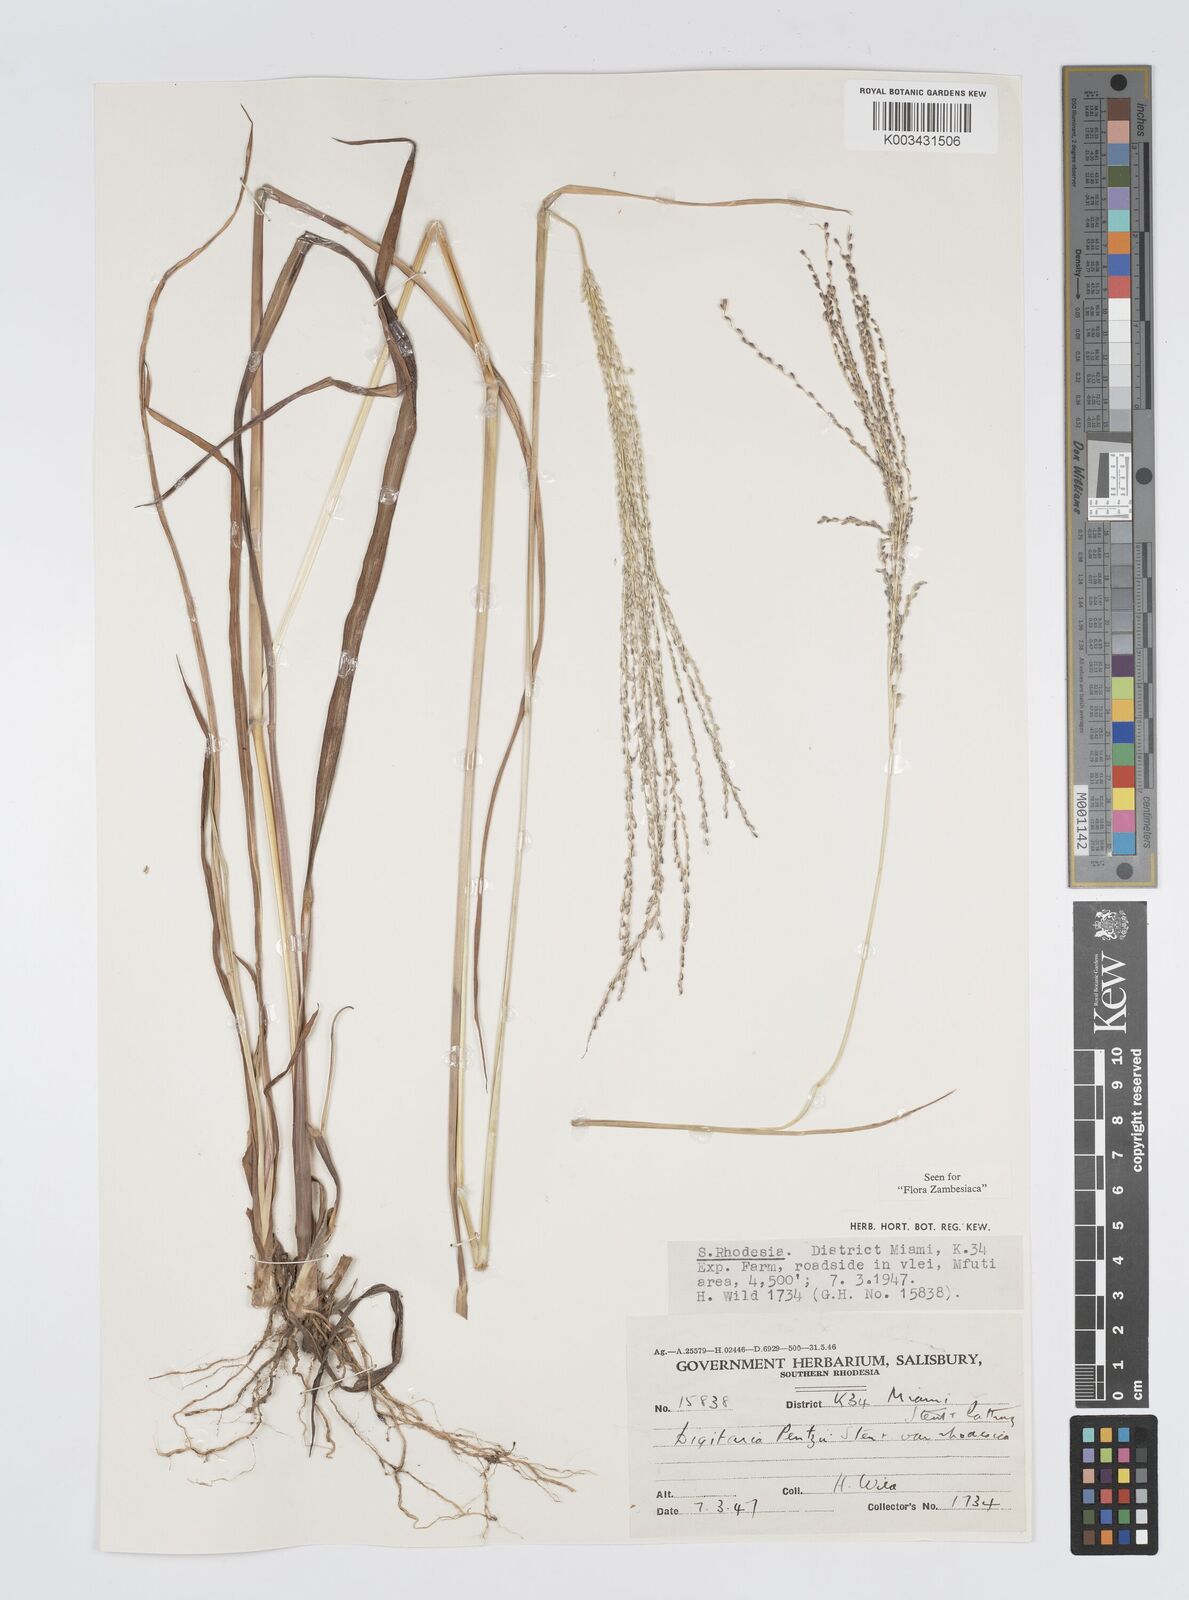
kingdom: Plantae
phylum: Tracheophyta
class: Liliopsida
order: Poales
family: Poaceae
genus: Digitaria
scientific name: Digitaria gazensis
